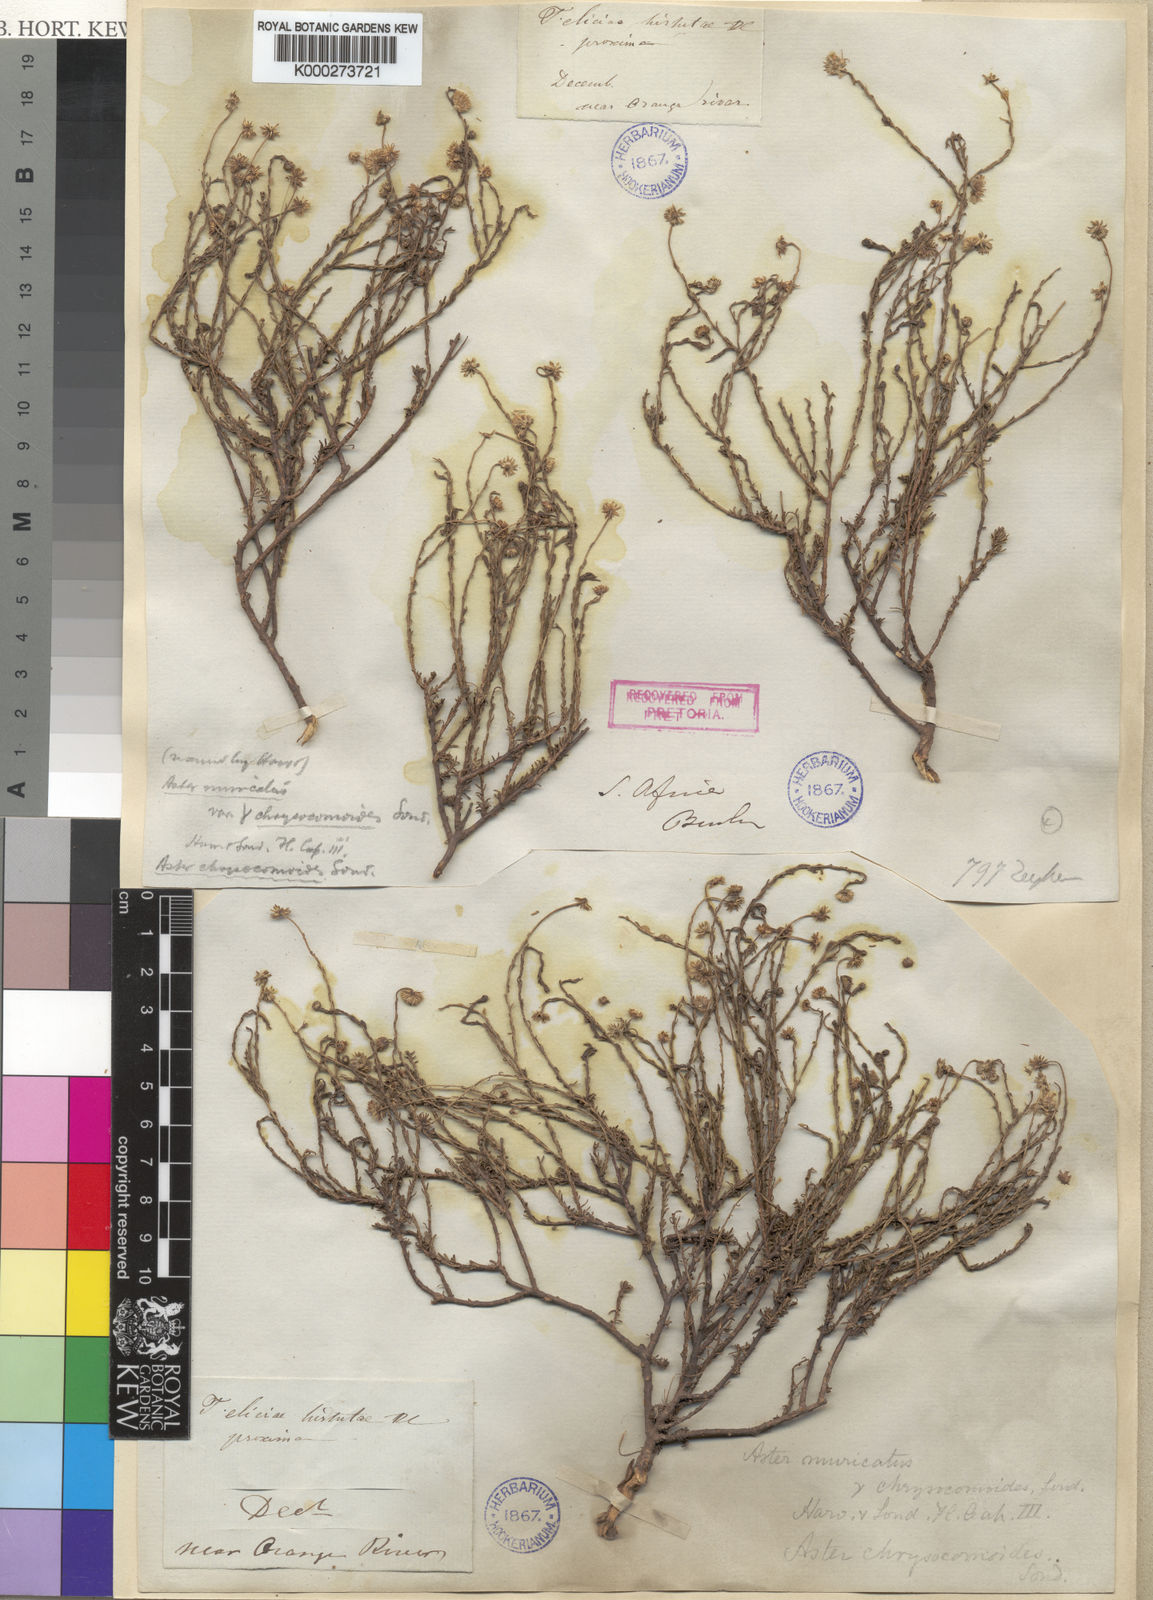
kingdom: Plantae
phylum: Tracheophyta
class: Magnoliopsida
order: Asterales
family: Asteraceae
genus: Felicia
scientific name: Felicia muricata
